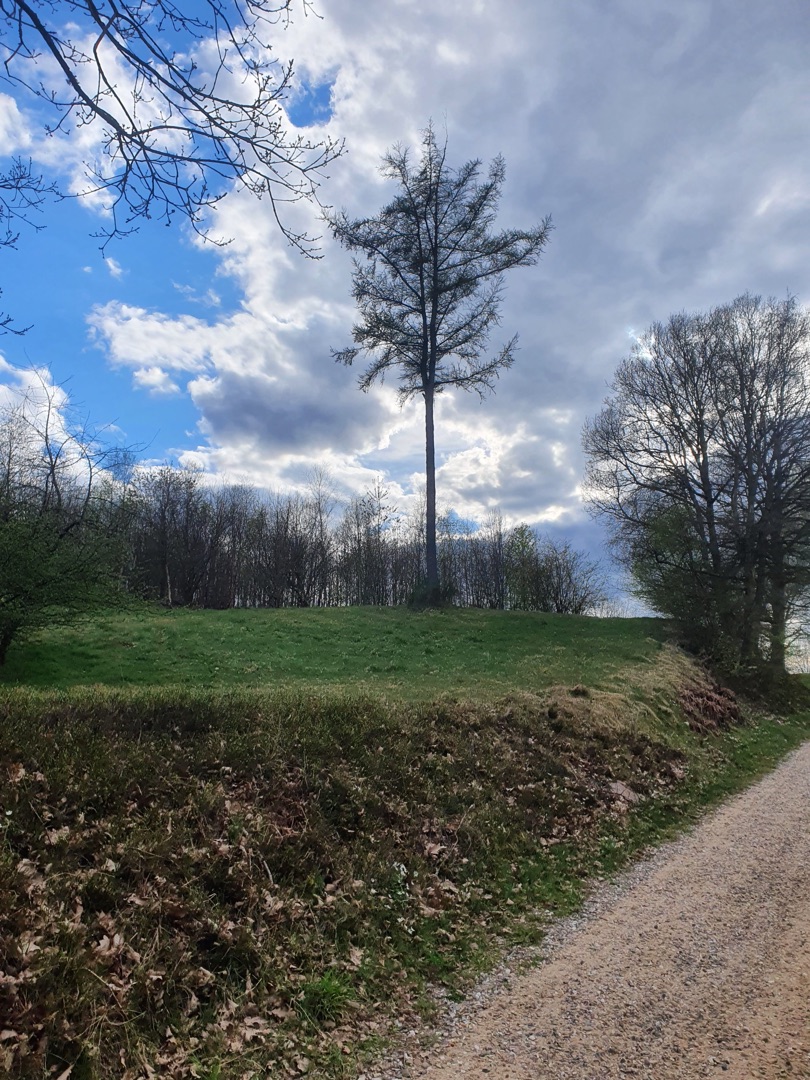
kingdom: Animalia
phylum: Chordata
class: Aves
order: Piciformes
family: Picidae
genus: Dryocopus
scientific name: Dryocopus martius
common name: Sortspætte
